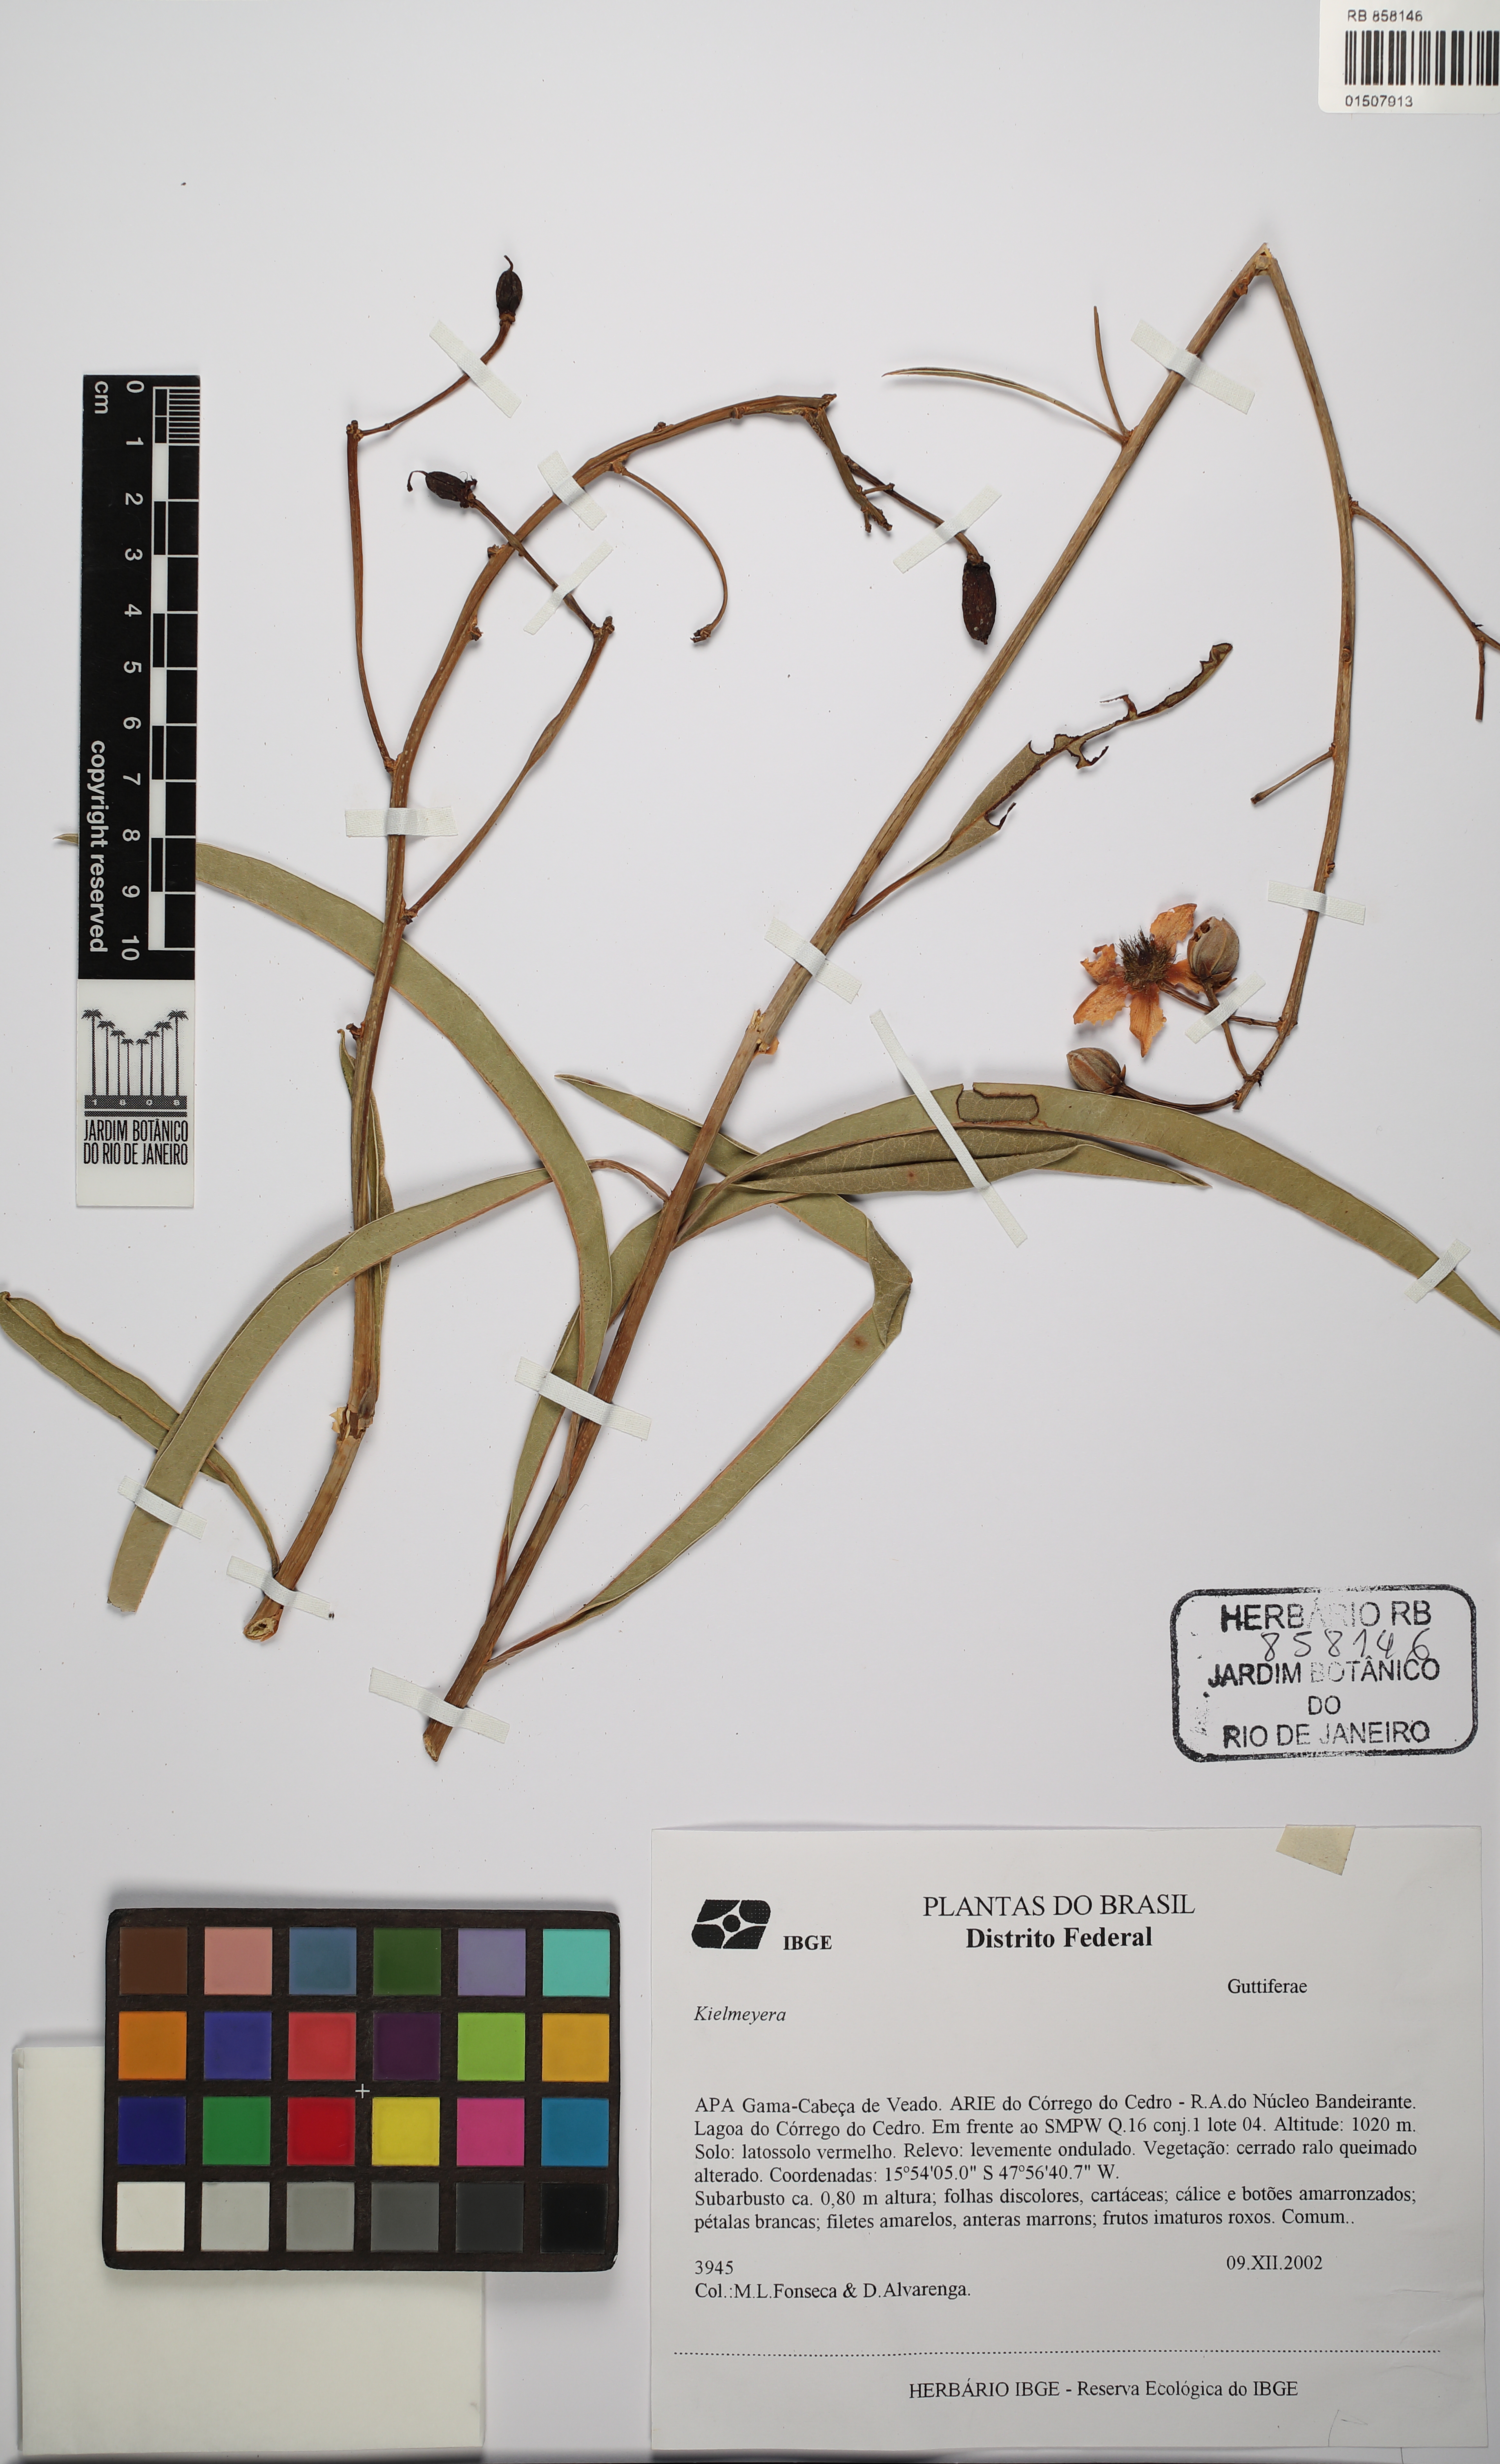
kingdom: Plantae
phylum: Tracheophyta
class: Magnoliopsida
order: Malpighiales
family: Calophyllaceae
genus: Kielmeyera
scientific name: Kielmeyera
